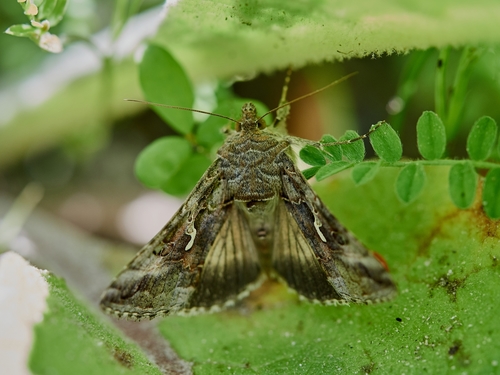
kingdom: Animalia
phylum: Arthropoda
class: Insecta
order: Lepidoptera
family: Noctuidae
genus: Autographa
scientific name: Autographa gamma
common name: Silver y
